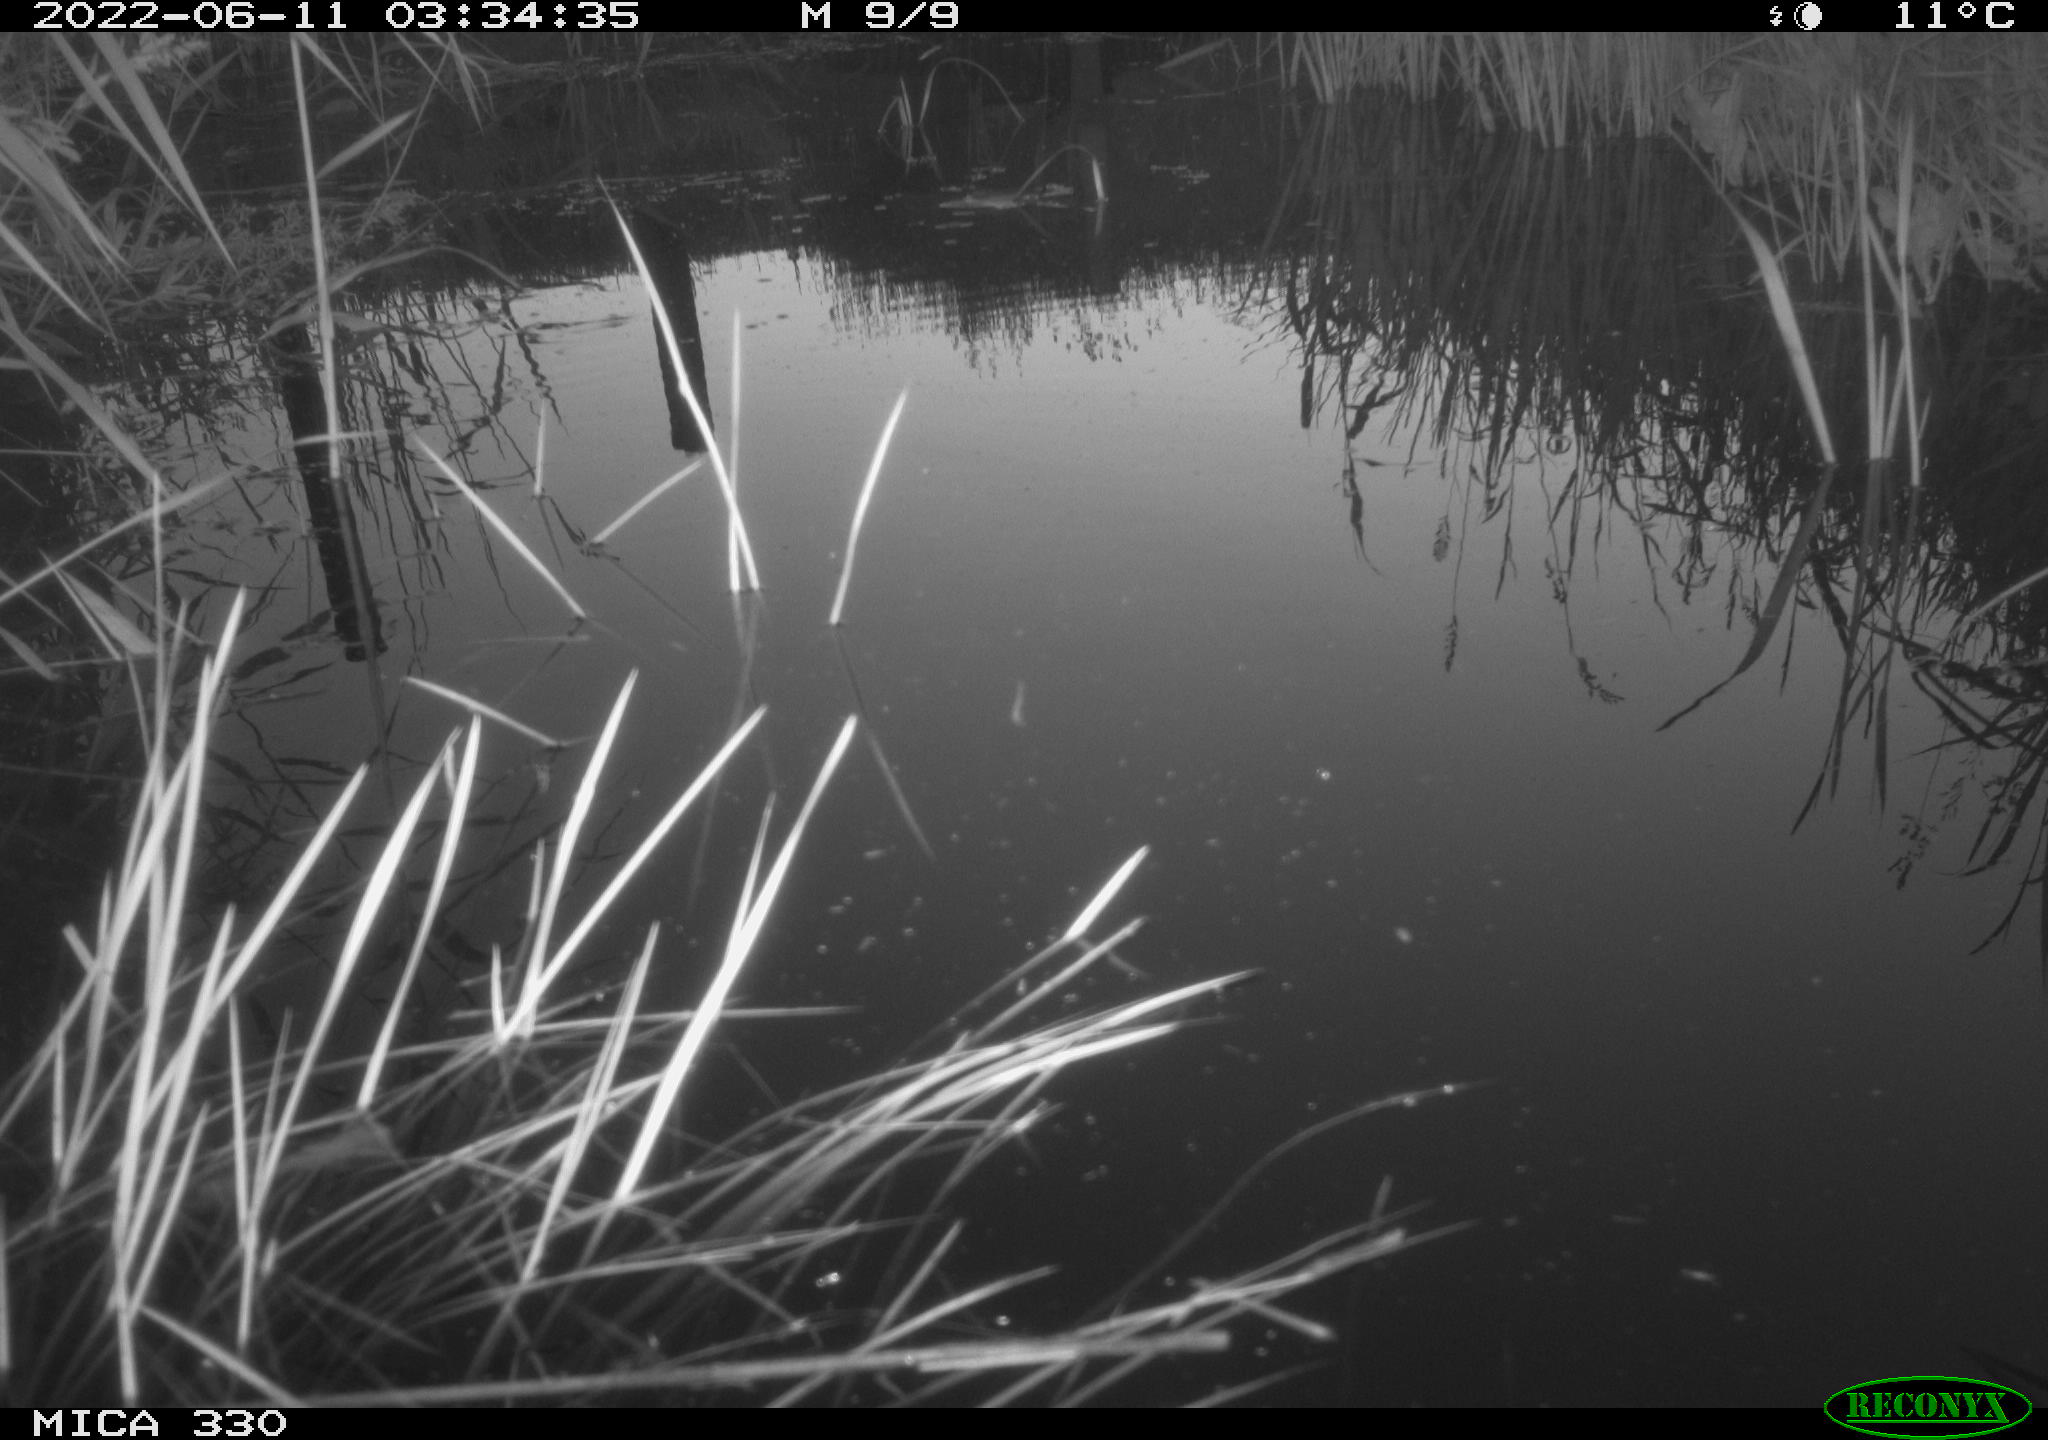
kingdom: Animalia
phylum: Chordata
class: Mammalia
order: Rodentia
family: Muridae
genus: Rattus
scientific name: Rattus norvegicus
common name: Brown rat
